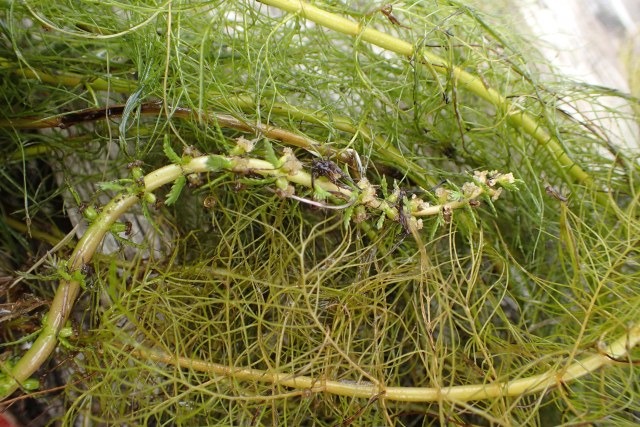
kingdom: Plantae
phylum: Tracheophyta
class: Magnoliopsida
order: Saxifragales
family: Haloragaceae
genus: Myriophyllum
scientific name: Myriophyllum verticillatum
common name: Krans-tusindblad
